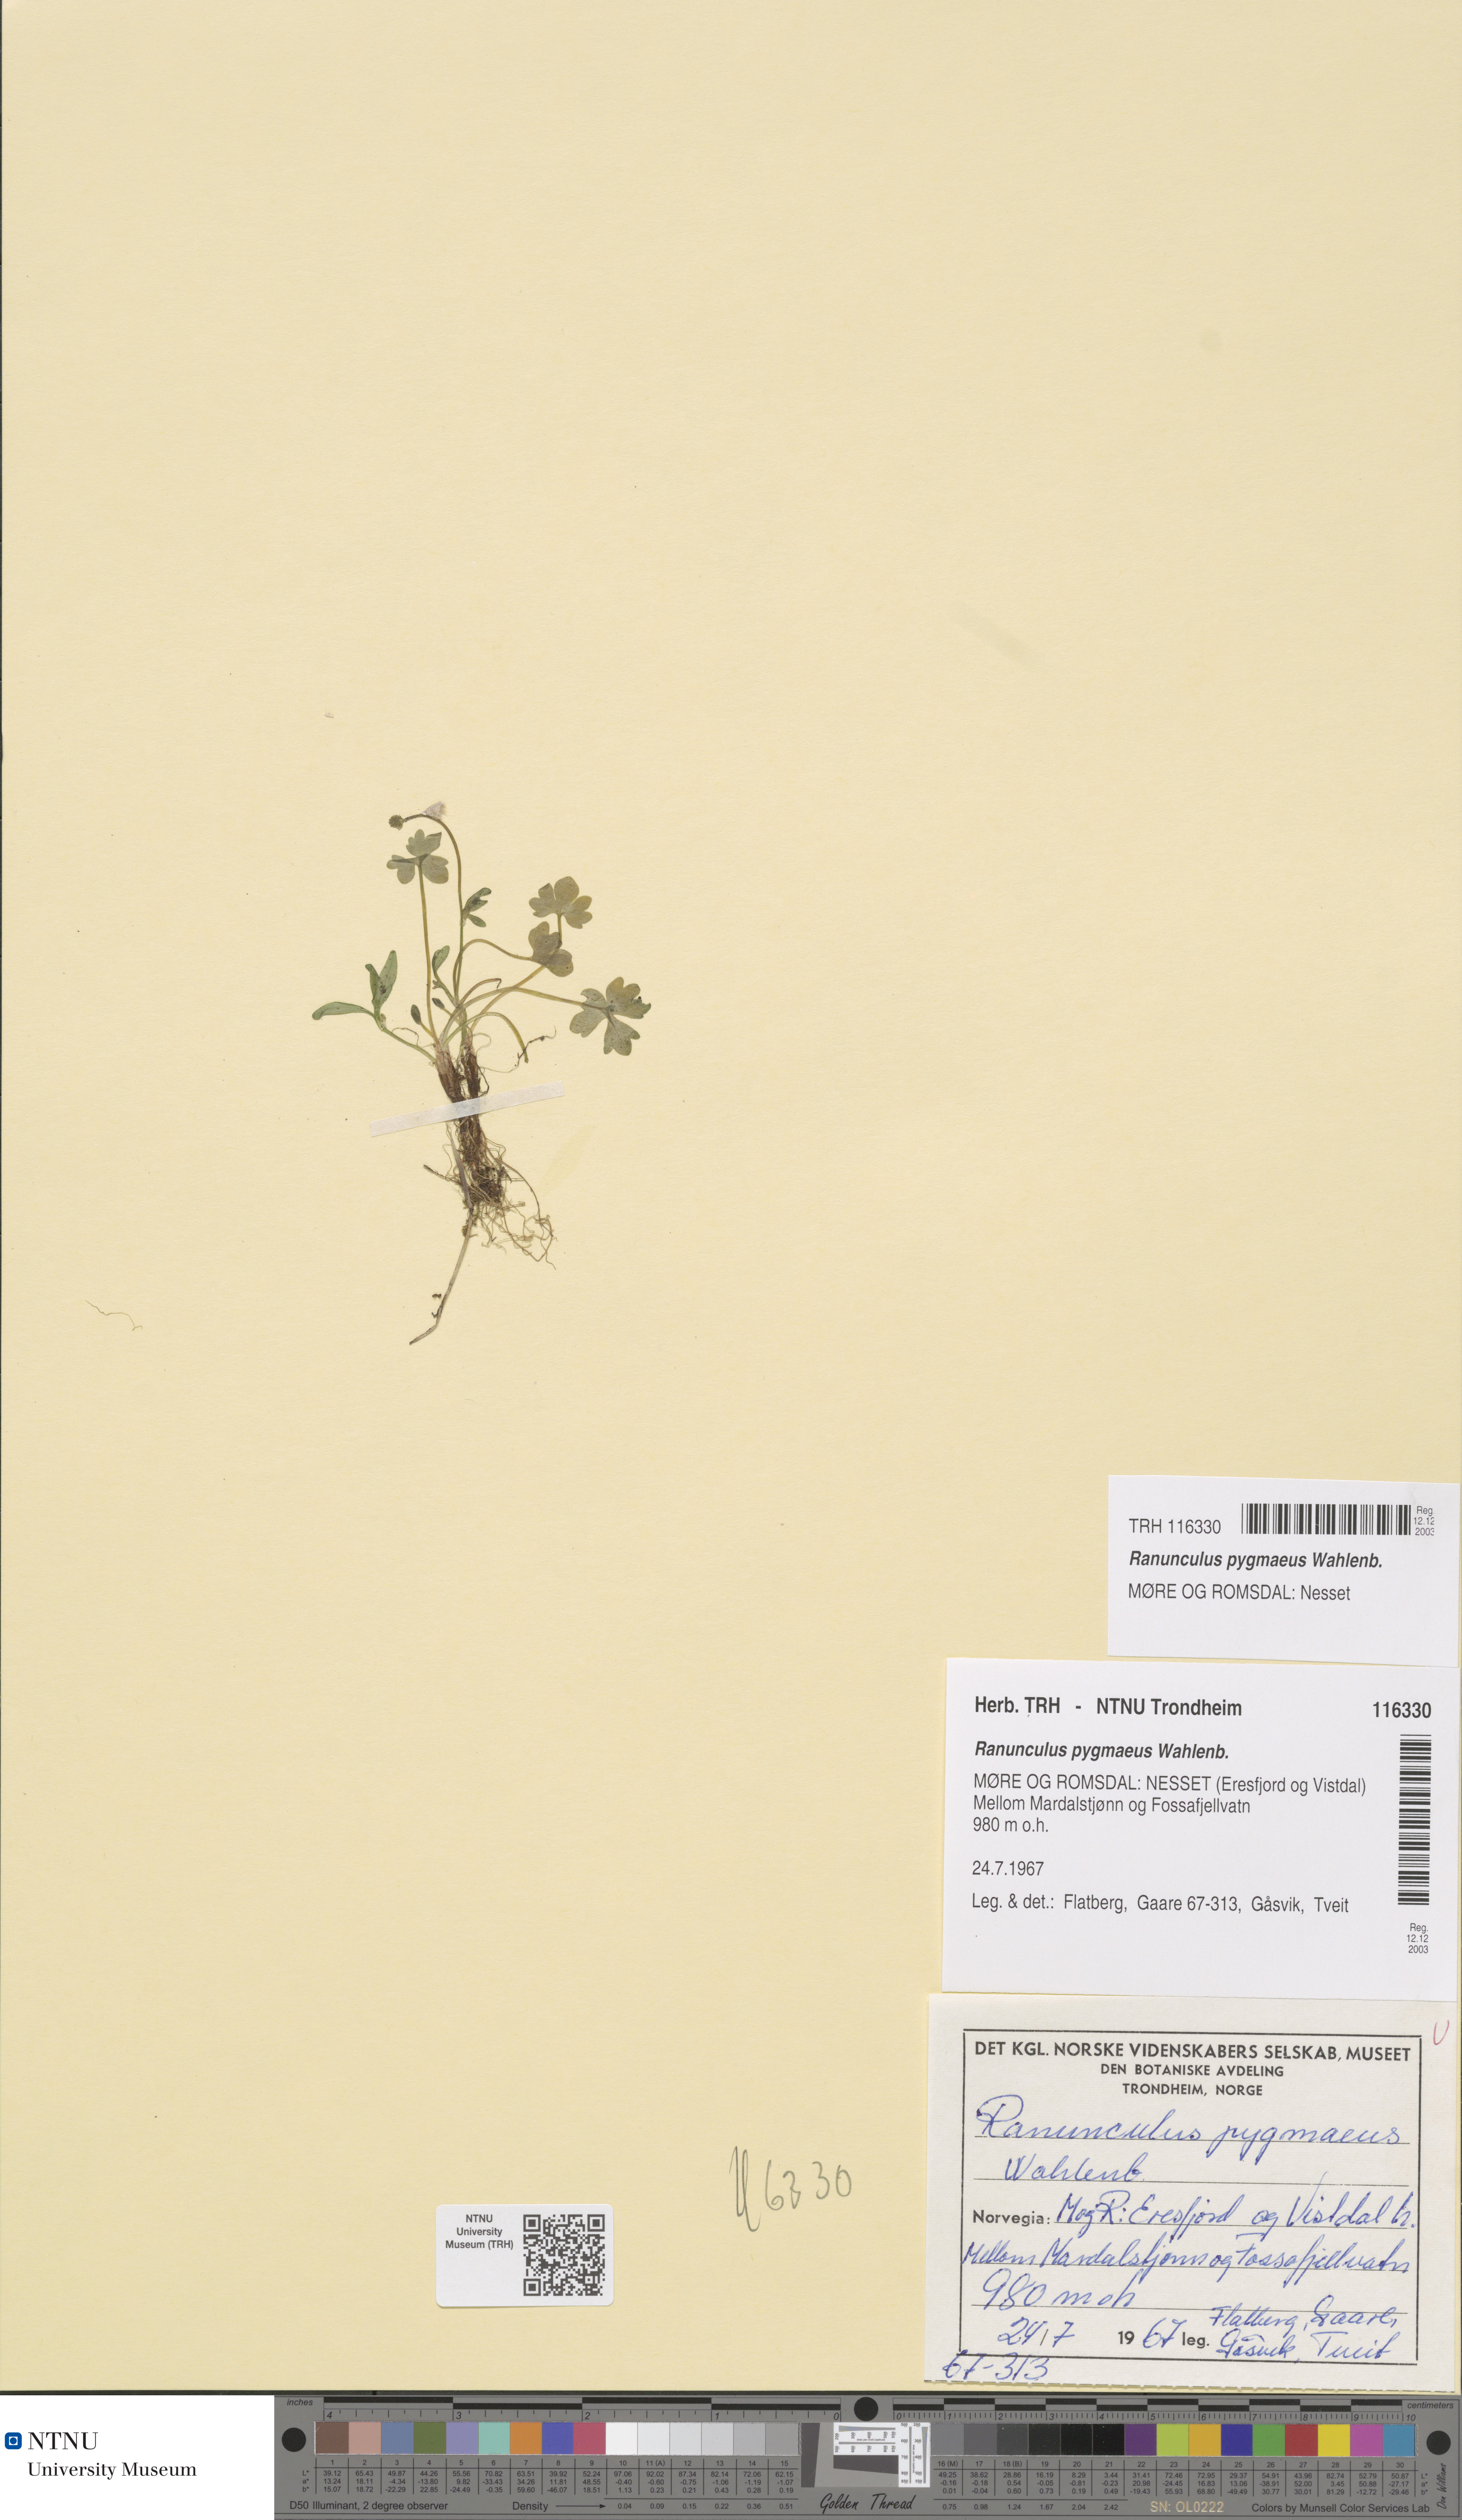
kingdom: Plantae
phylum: Tracheophyta
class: Magnoliopsida
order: Ranunculales
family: Ranunculaceae
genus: Ranunculus
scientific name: Ranunculus pygmaeus
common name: Dwarf buttercup
